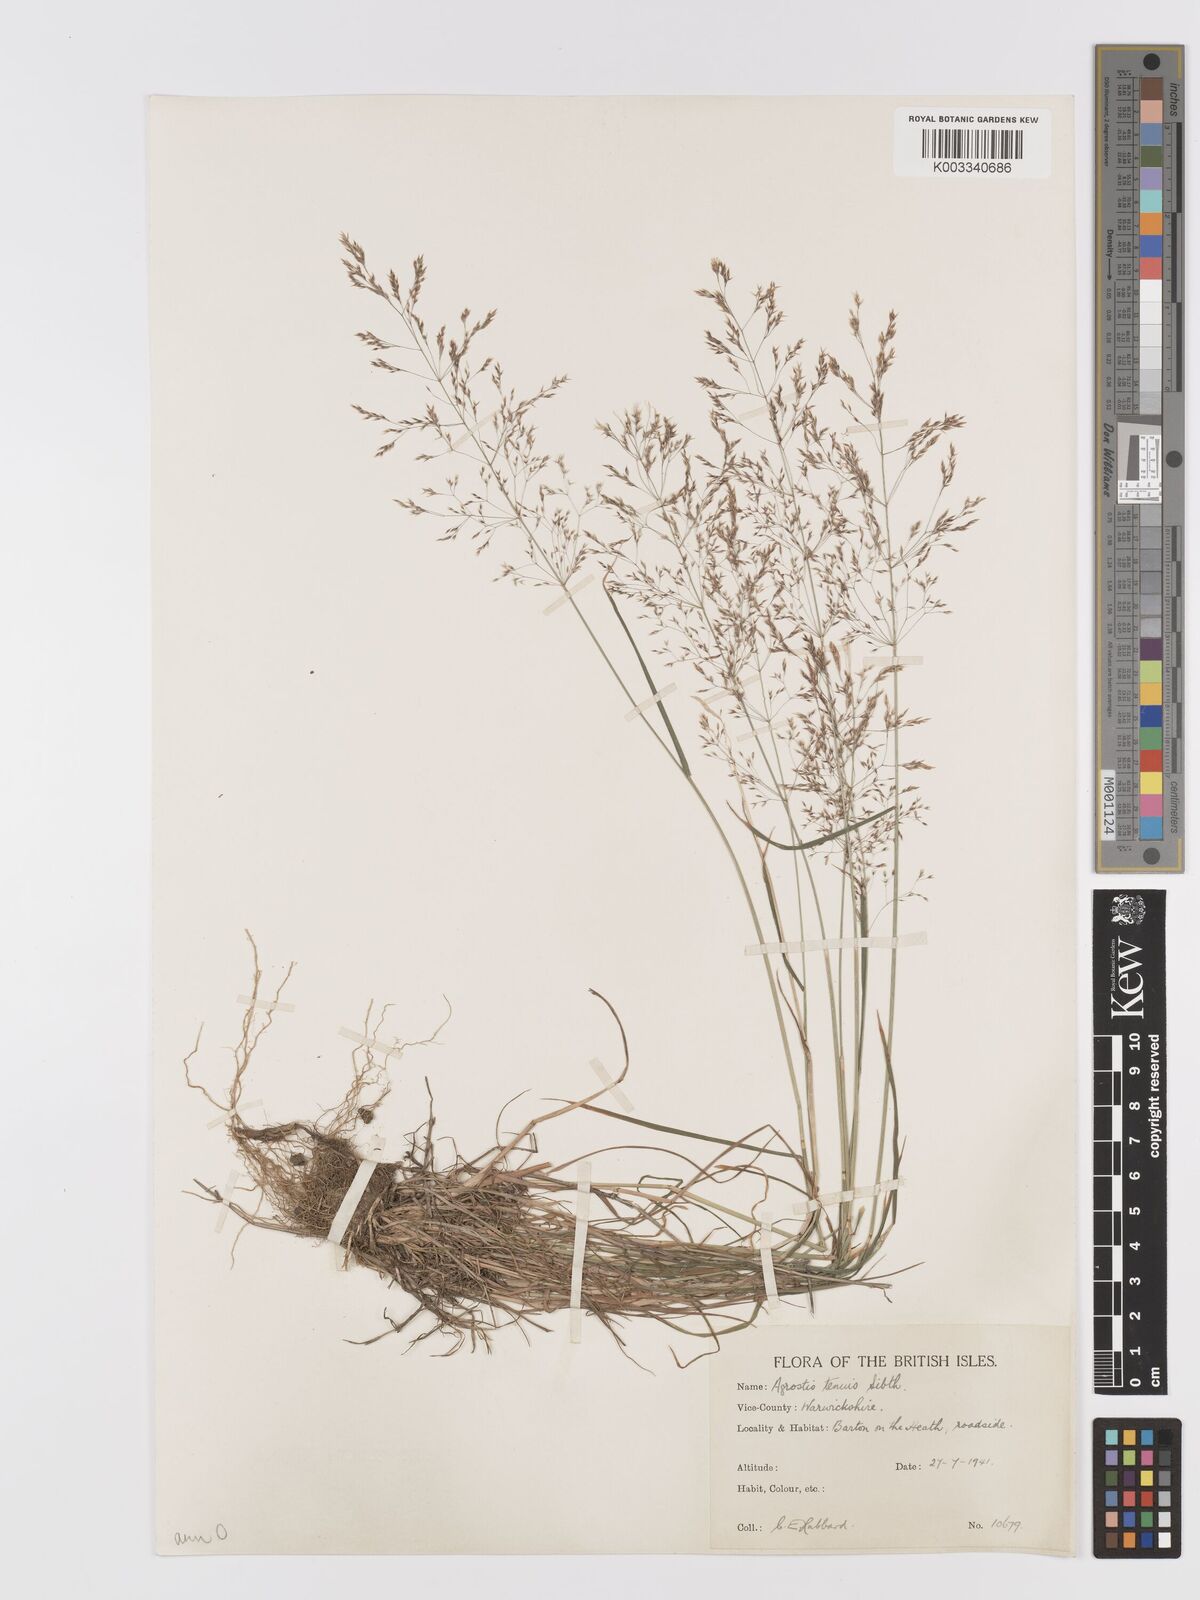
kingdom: Plantae
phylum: Tracheophyta
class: Liliopsida
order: Poales
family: Poaceae
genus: Agrostis
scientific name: Agrostis capillaris
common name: Colonial bentgrass
